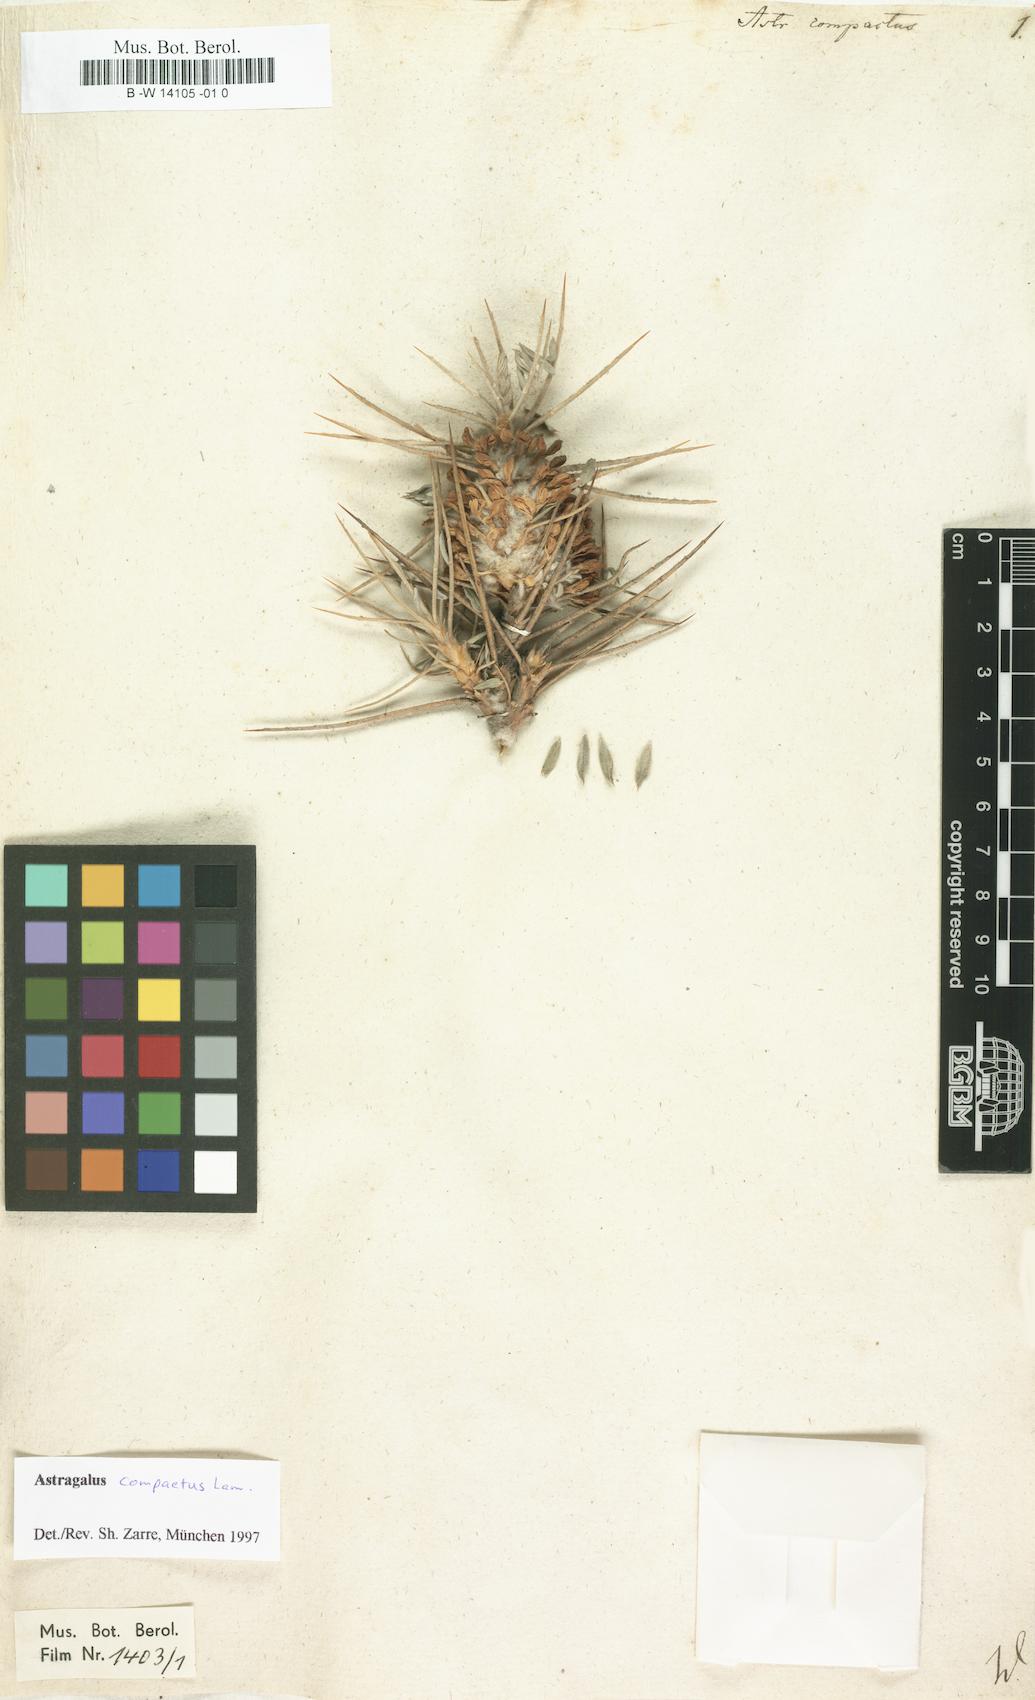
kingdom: Plantae
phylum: Tracheophyta
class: Magnoliopsida
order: Fabales
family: Fabaceae
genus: Astragalus
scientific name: Astragalus compactus
